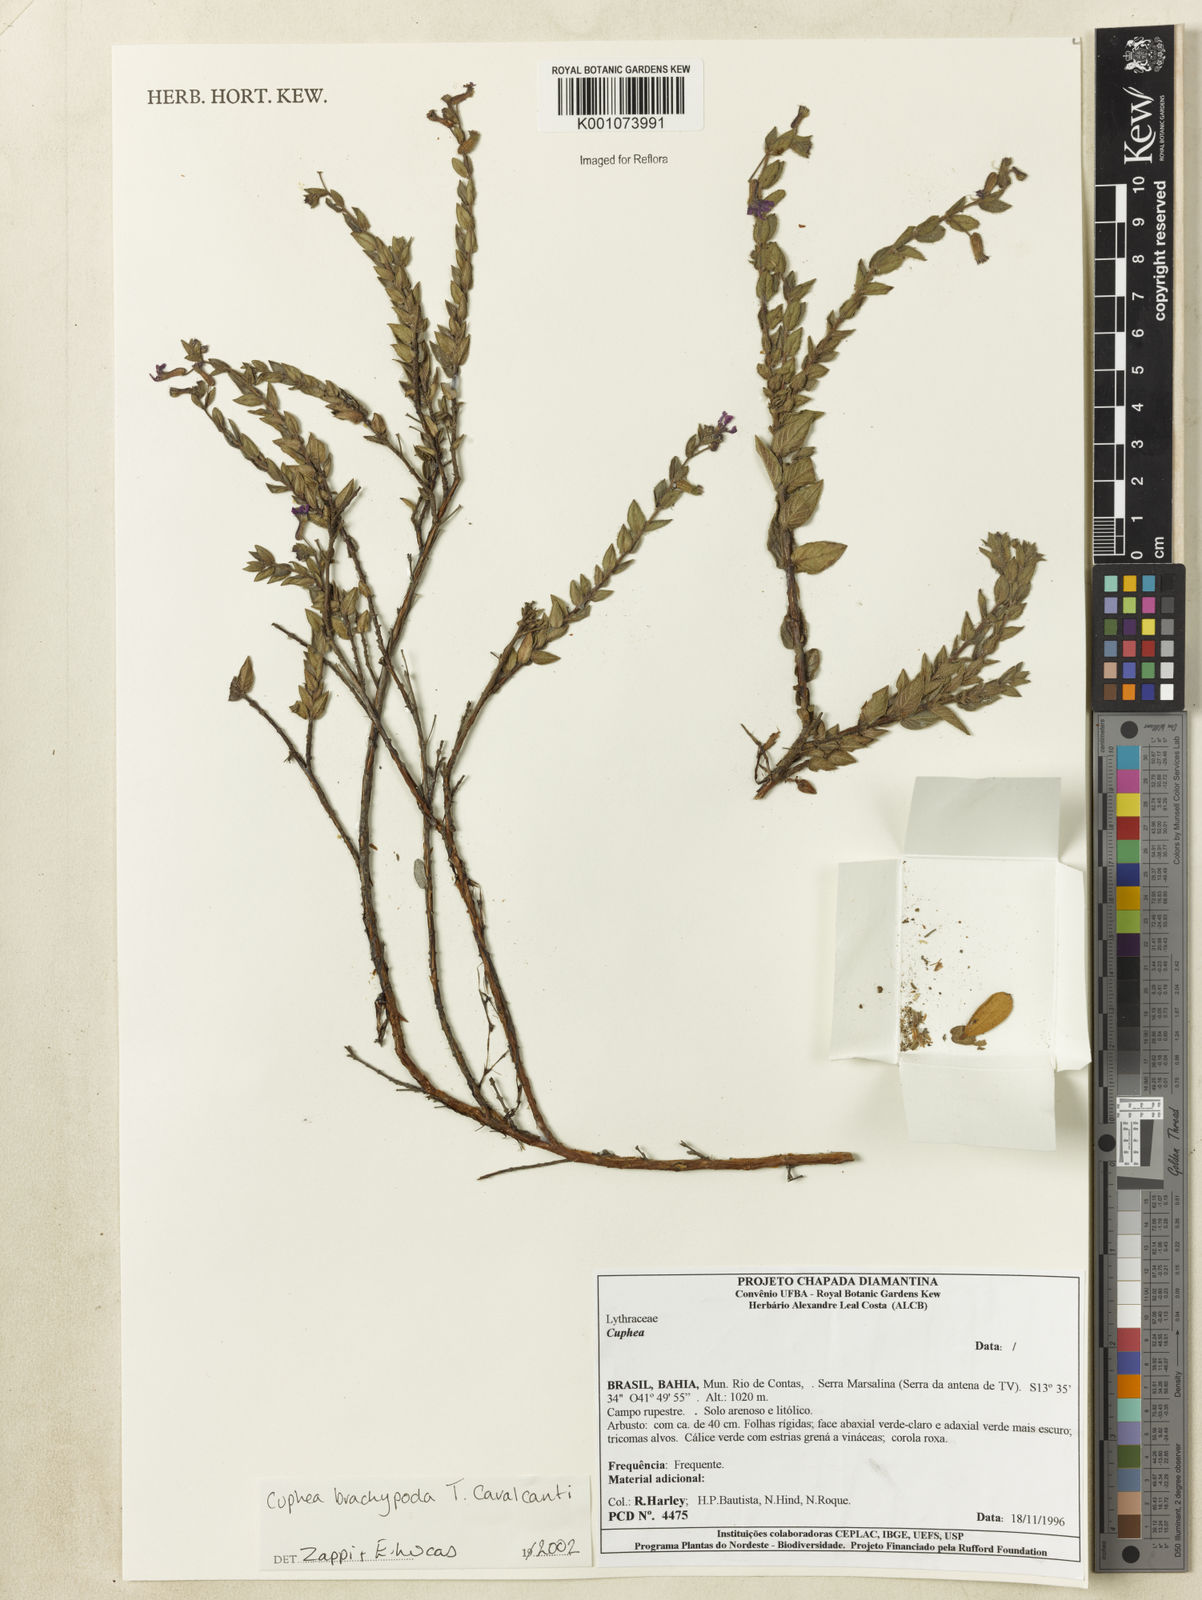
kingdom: Plantae
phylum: Tracheophyta
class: Magnoliopsida
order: Myrtales
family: Lythraceae
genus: Cuphea
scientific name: Cuphea brachypoda
